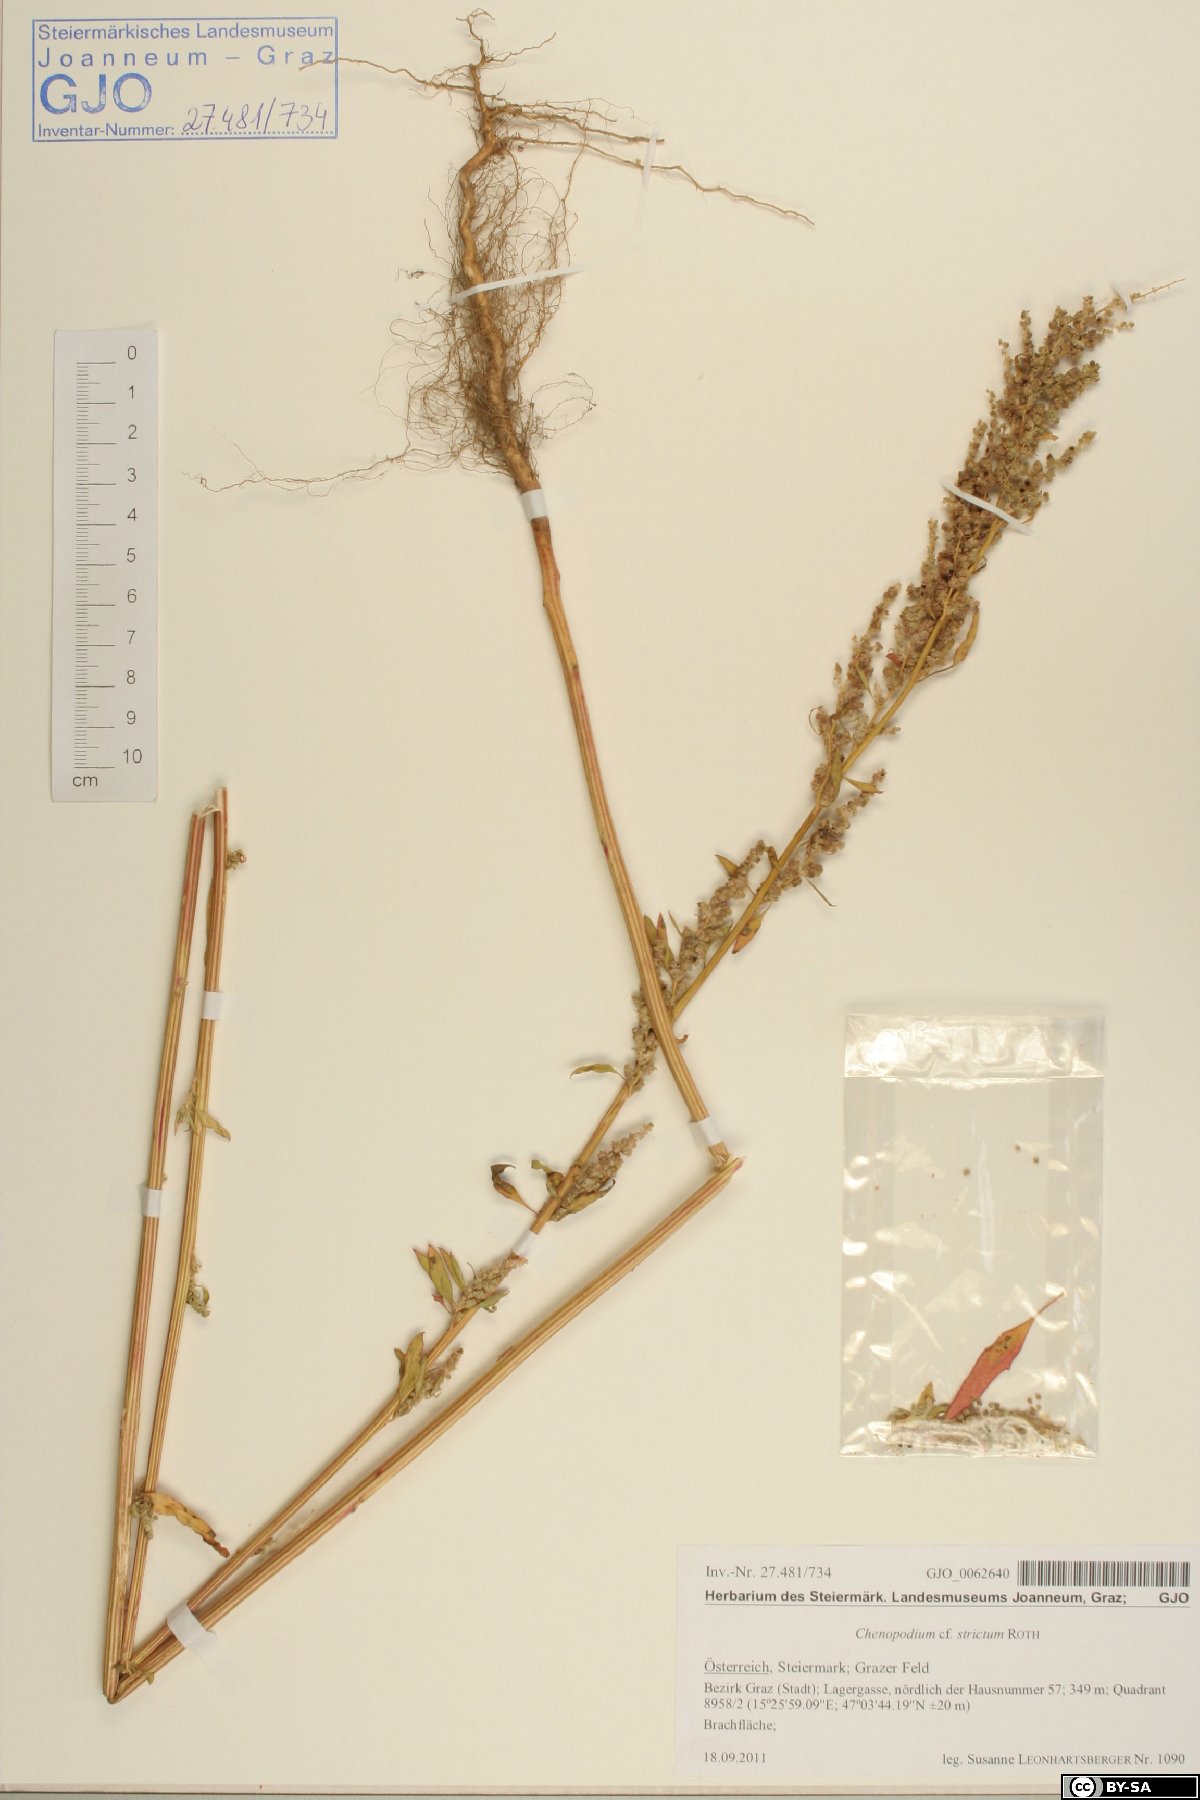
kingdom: Plantae
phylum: Tracheophyta
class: Magnoliopsida
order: Caryophyllales
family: Amaranthaceae
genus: Chenopodium
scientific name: Chenopodium album
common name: Fat-hen
